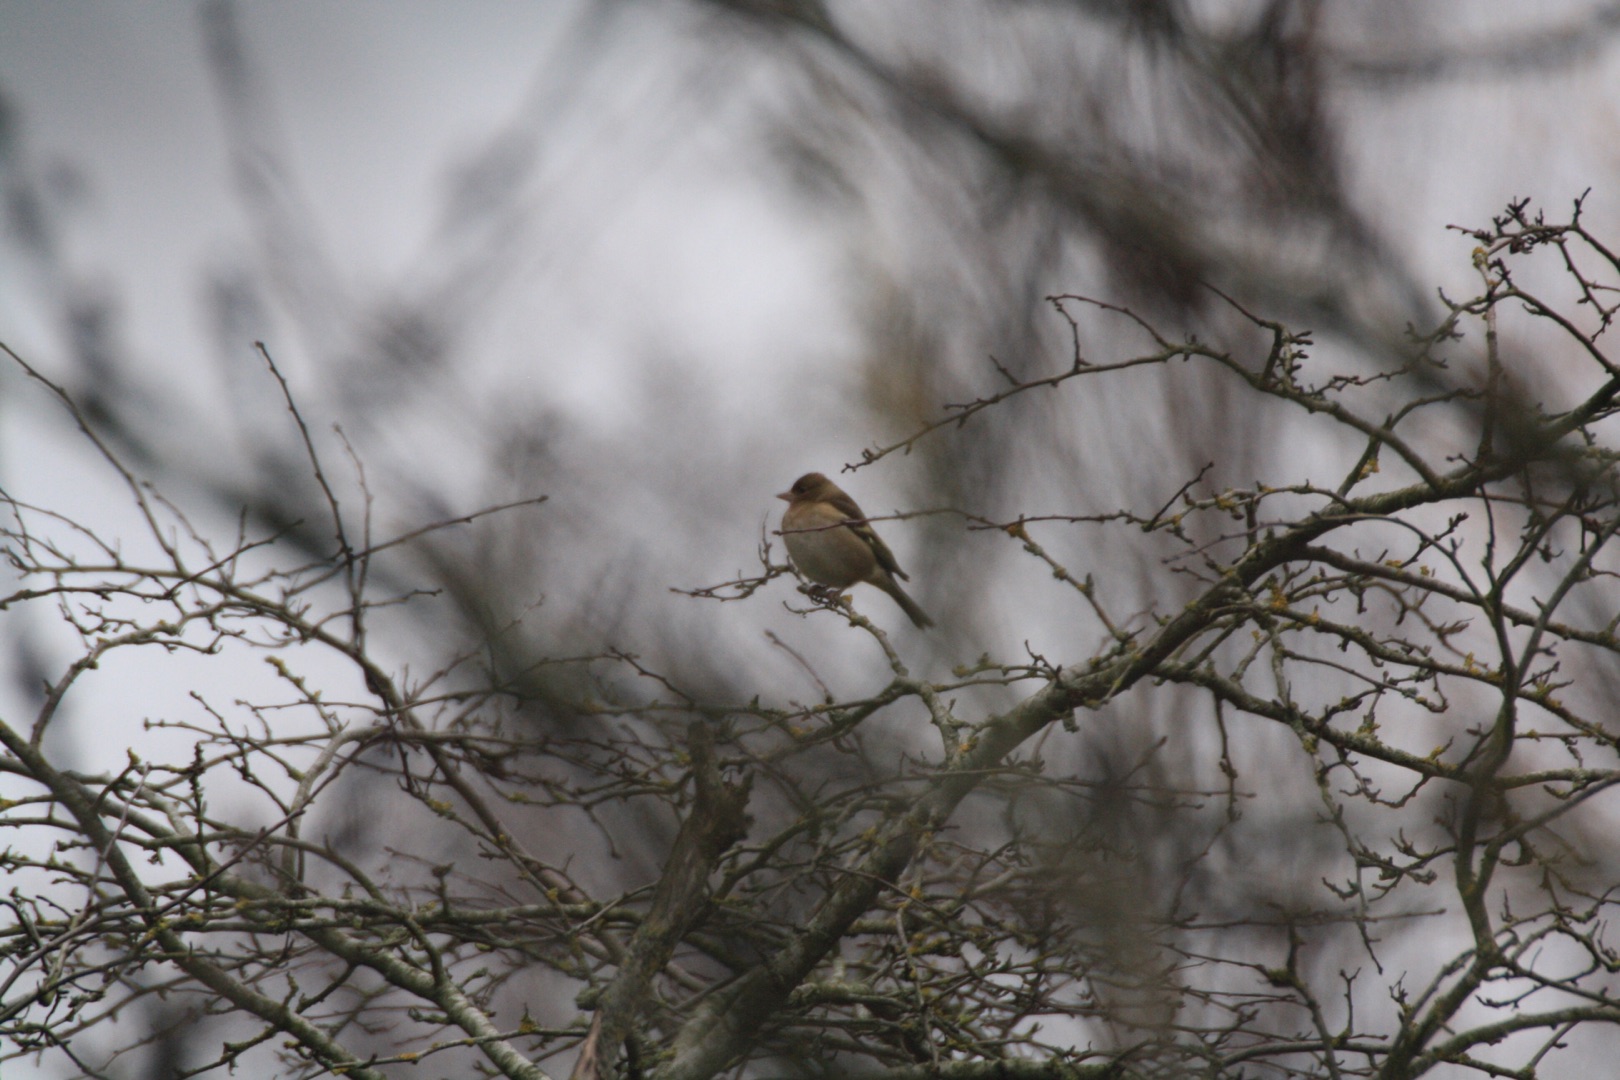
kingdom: Animalia
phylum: Chordata
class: Aves
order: Passeriformes
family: Fringillidae
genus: Fringilla
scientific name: Fringilla coelebs
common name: Bogfinke
